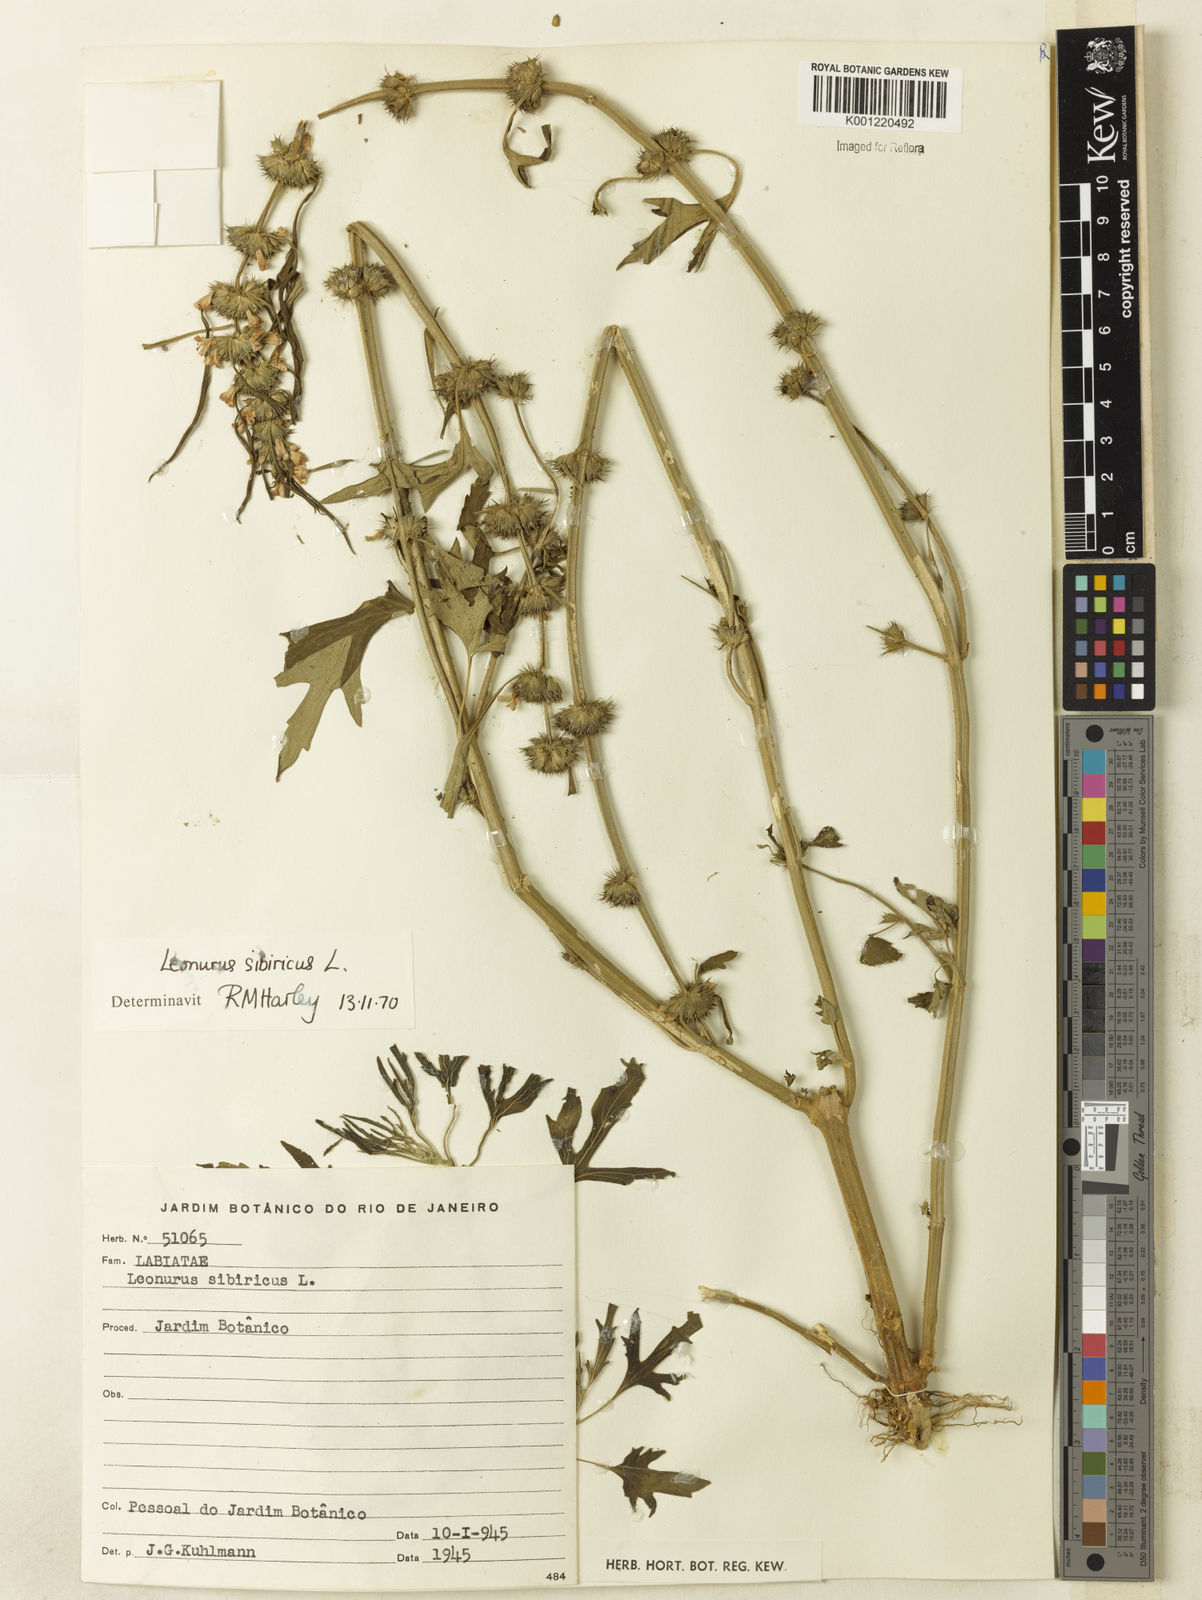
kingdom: Plantae
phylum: Tracheophyta
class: Magnoliopsida
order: Lamiales
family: Lamiaceae
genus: Leonurus
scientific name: Leonurus japonicus
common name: Honeyweed
